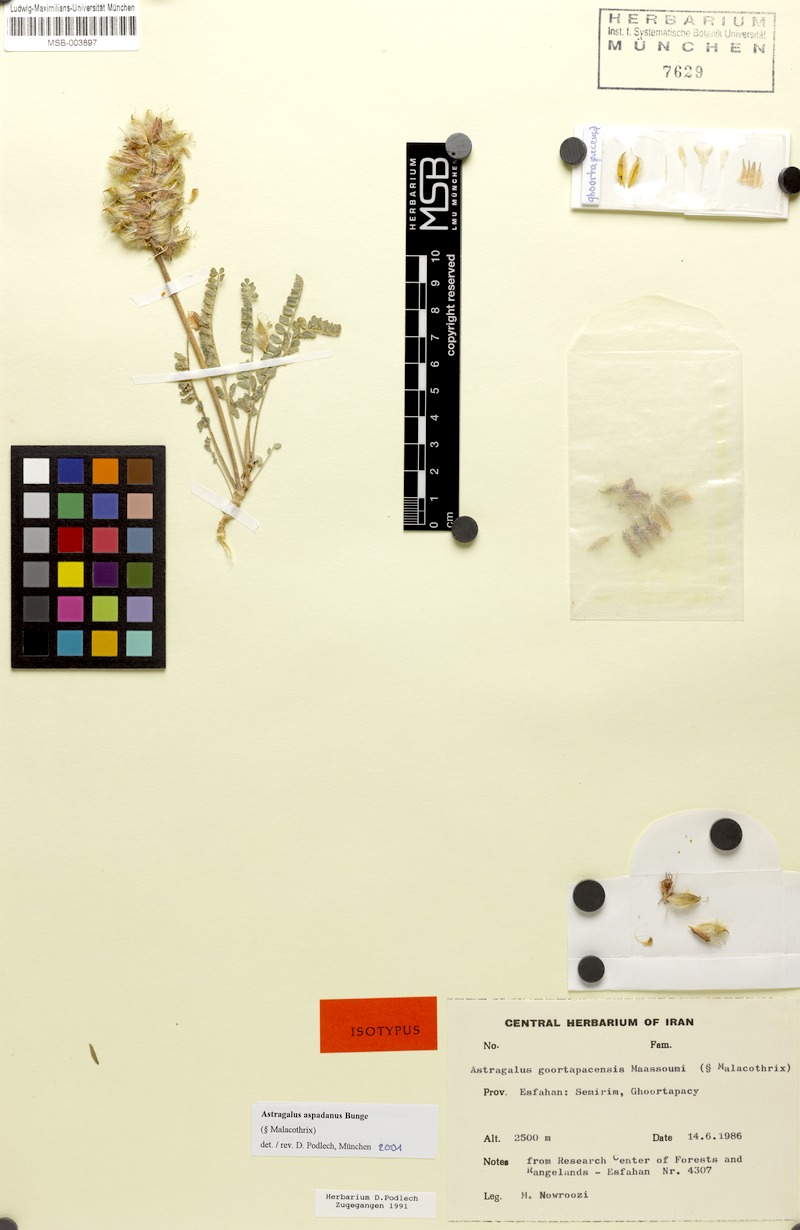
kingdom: Plantae
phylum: Tracheophyta
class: Magnoliopsida
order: Fabales
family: Fabaceae
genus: Astragalus
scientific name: Astragalus aspadanus
